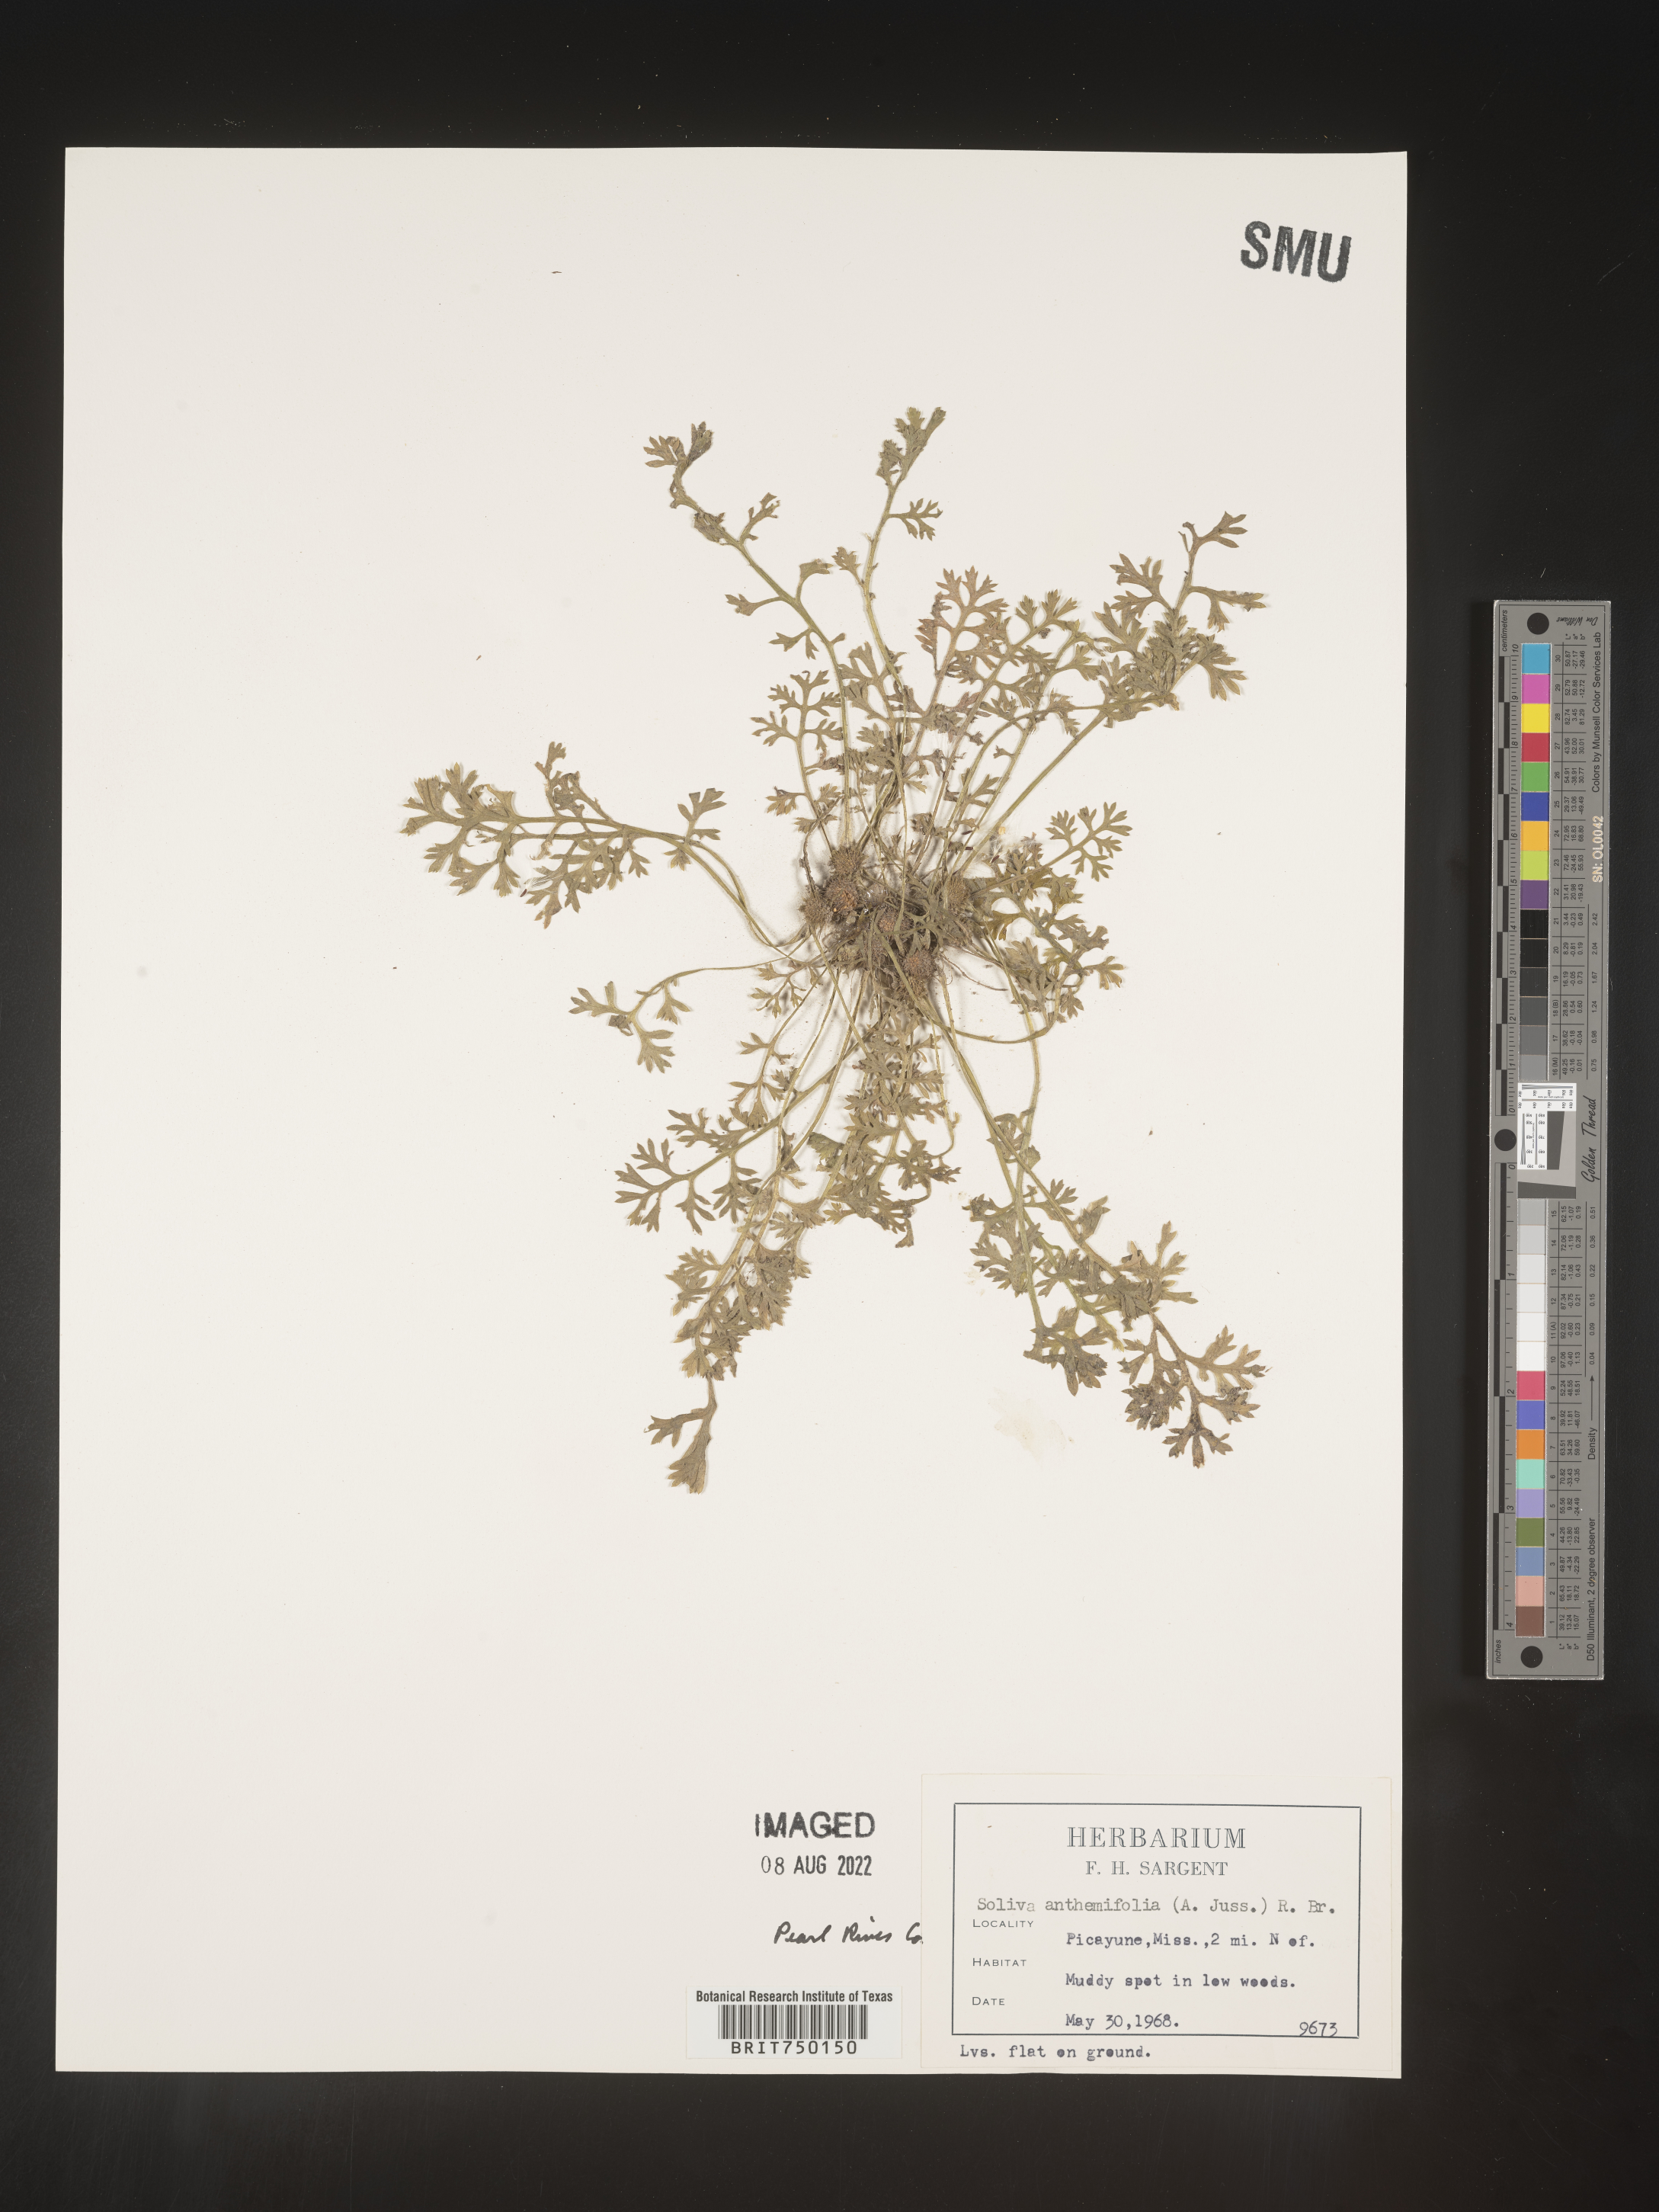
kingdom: Plantae
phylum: Tracheophyta
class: Magnoliopsida
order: Asterales
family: Asteraceae
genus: Soliva
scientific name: Soliva
